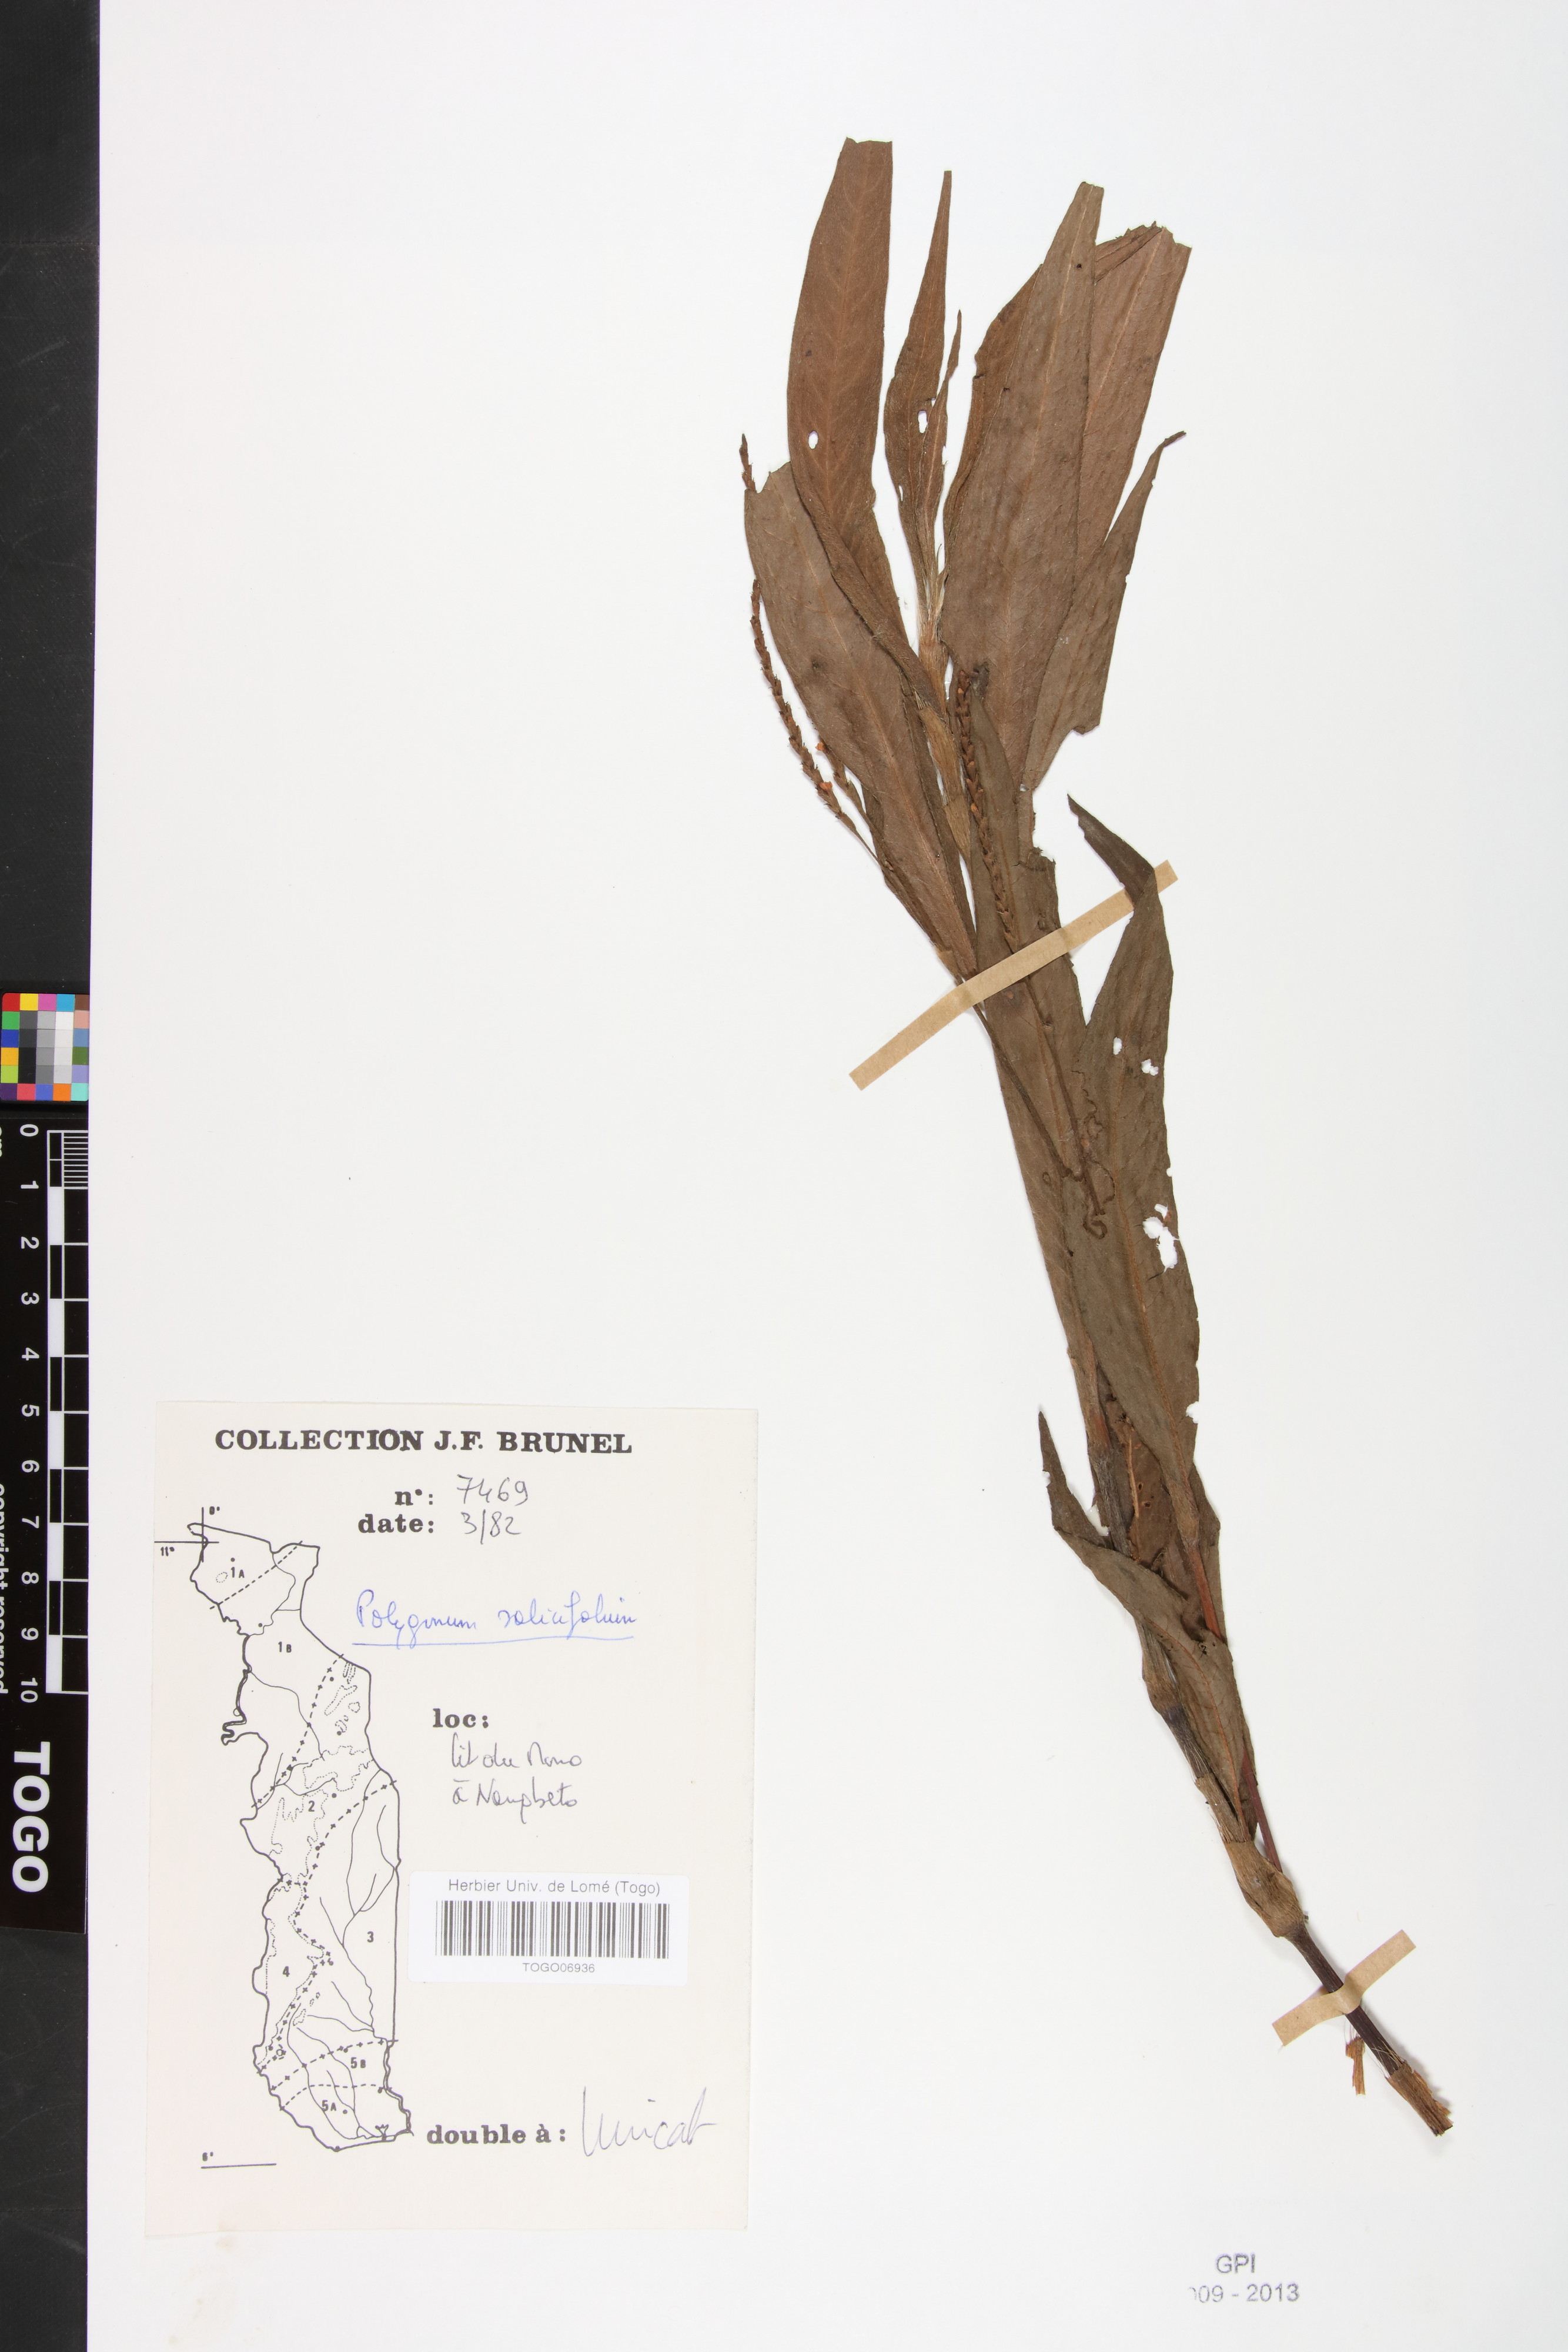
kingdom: Plantae
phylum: Tracheophyta
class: Magnoliopsida
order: Caryophyllales
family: Polygonaceae
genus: Persicaria
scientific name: Persicaria salicifolia
